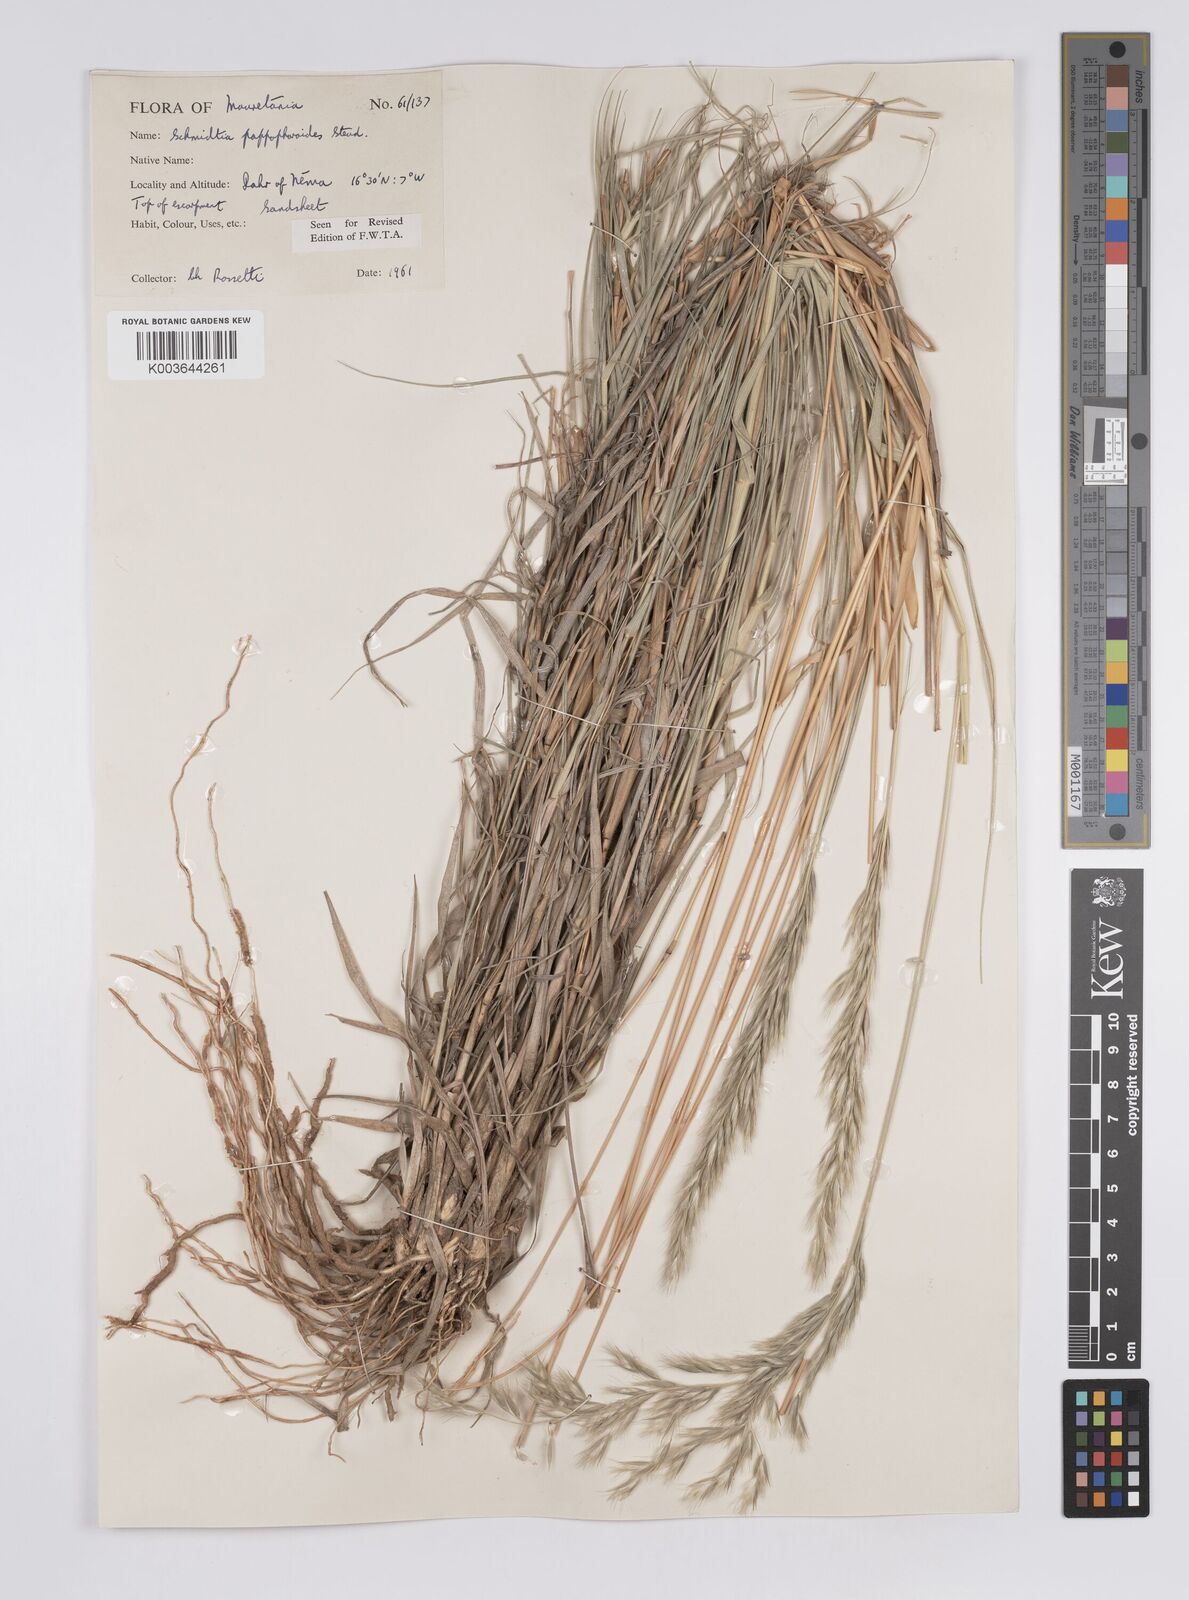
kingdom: Plantae
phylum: Tracheophyta
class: Liliopsida
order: Poales
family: Poaceae
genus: Schmidtia
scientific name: Schmidtia pappophoroides
